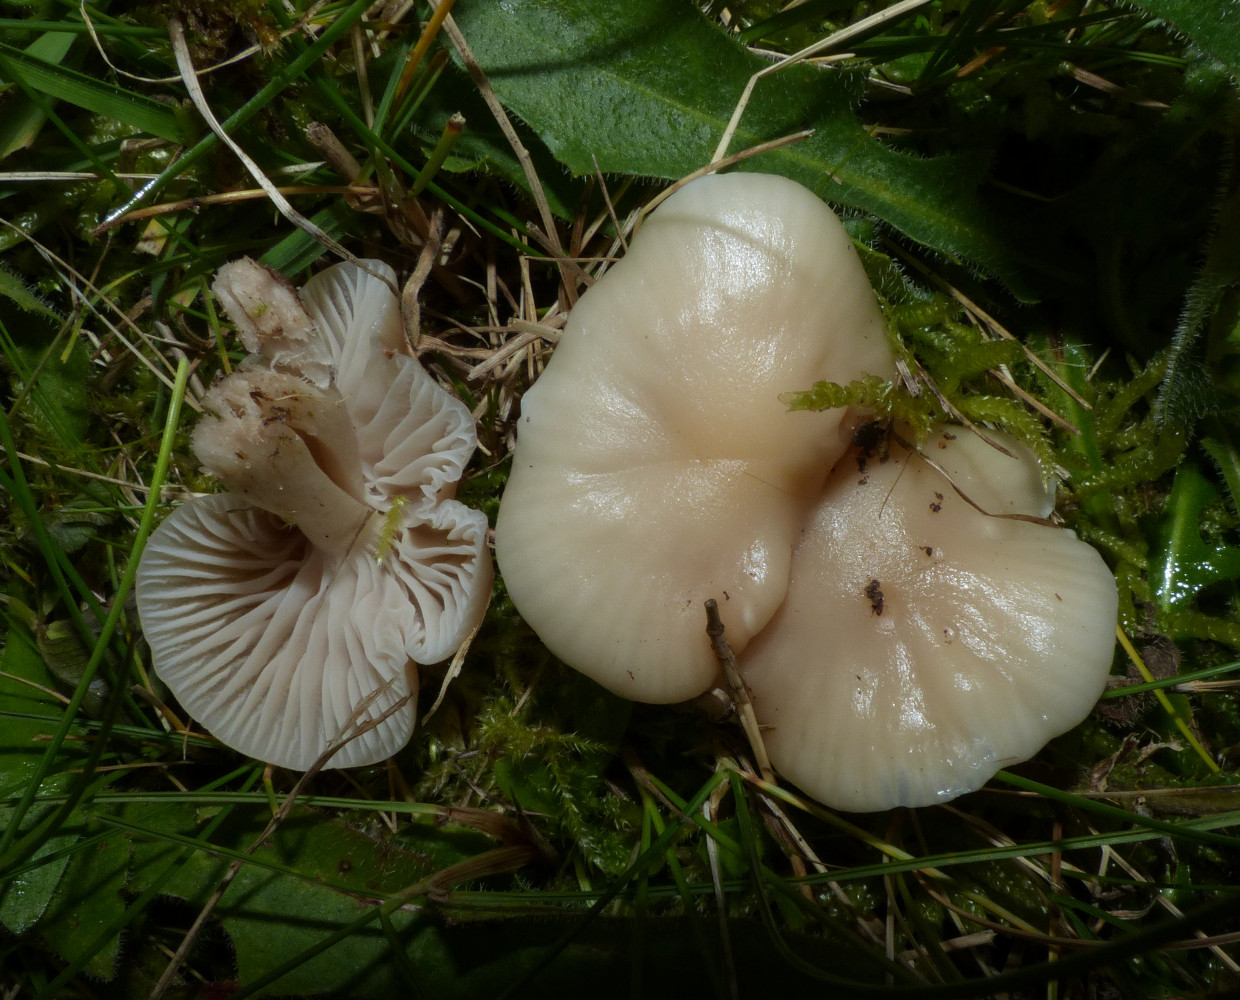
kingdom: Fungi
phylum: Basidiomycota
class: Agaricomycetes
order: Agaricales
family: Hygrophoraceae
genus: Cuphophyllus
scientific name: Cuphophyllus
